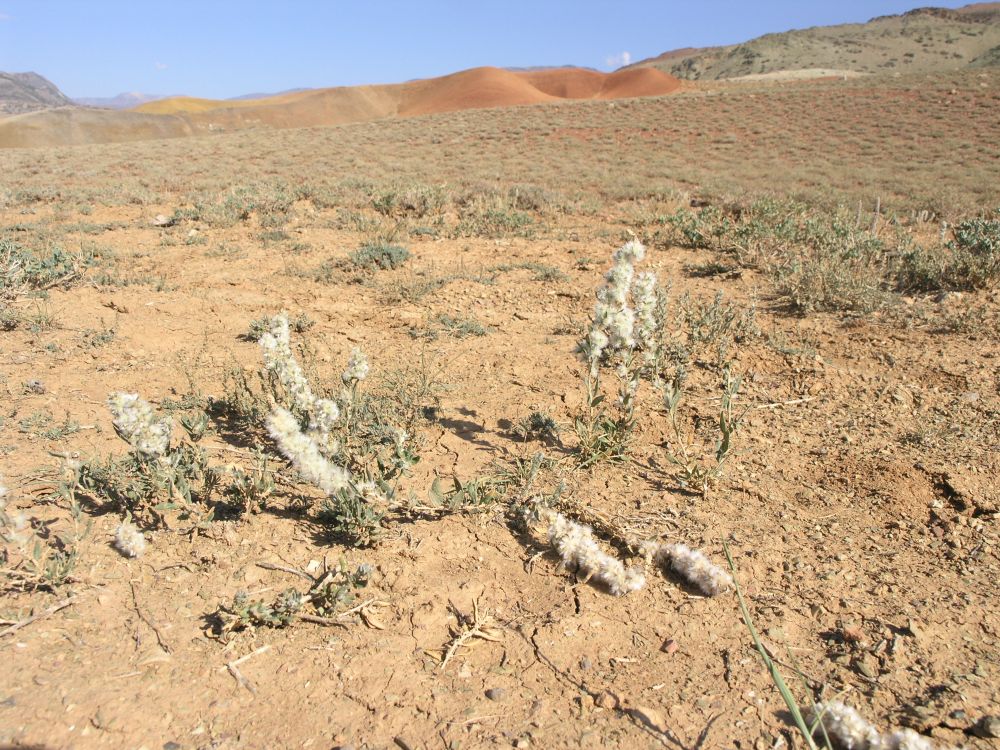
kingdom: Plantae
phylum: Tracheophyta
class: Magnoliopsida
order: Caryophyllales
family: Amaranthaceae
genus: Krascheninnikovia
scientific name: Krascheninnikovia ceratoides
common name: Pamirian winterfat
